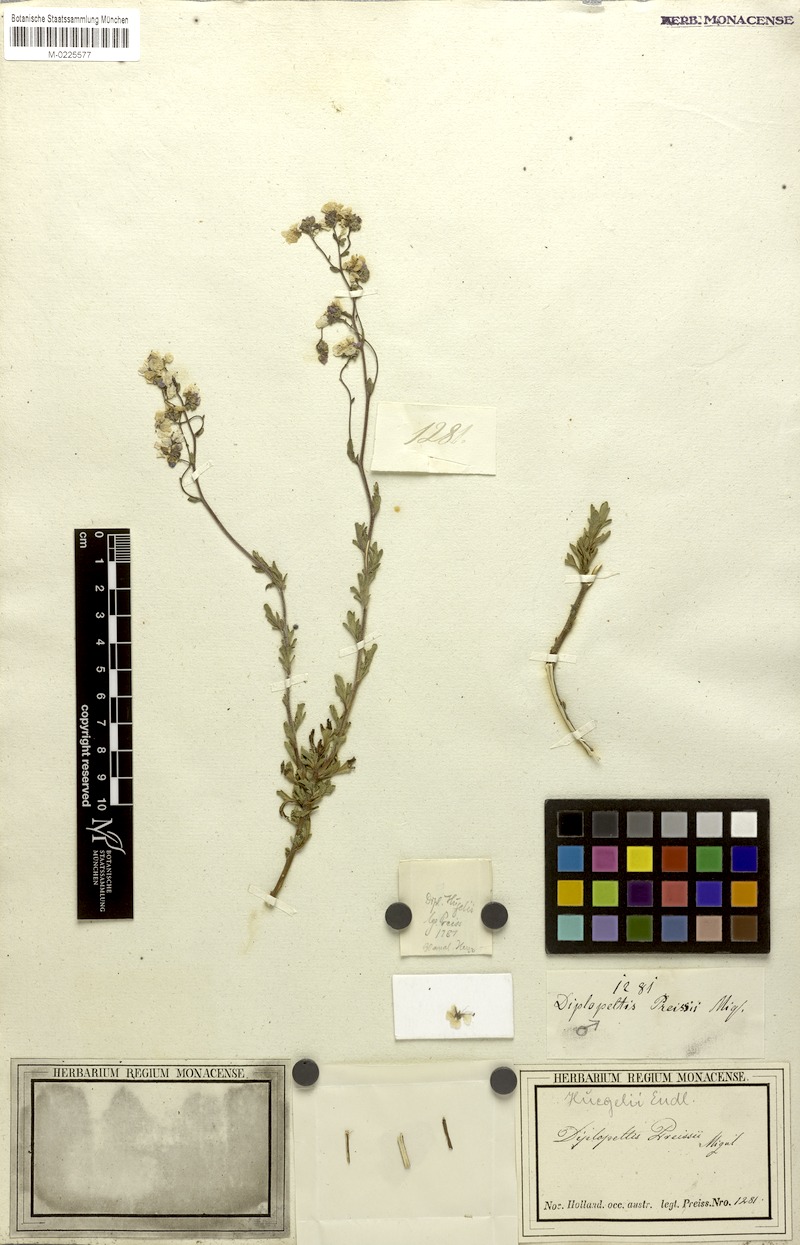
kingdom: Plantae
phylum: Tracheophyta
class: Magnoliopsida
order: Sapindales
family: Sapindaceae
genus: Diplopeltis
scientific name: Diplopeltis huegelii
